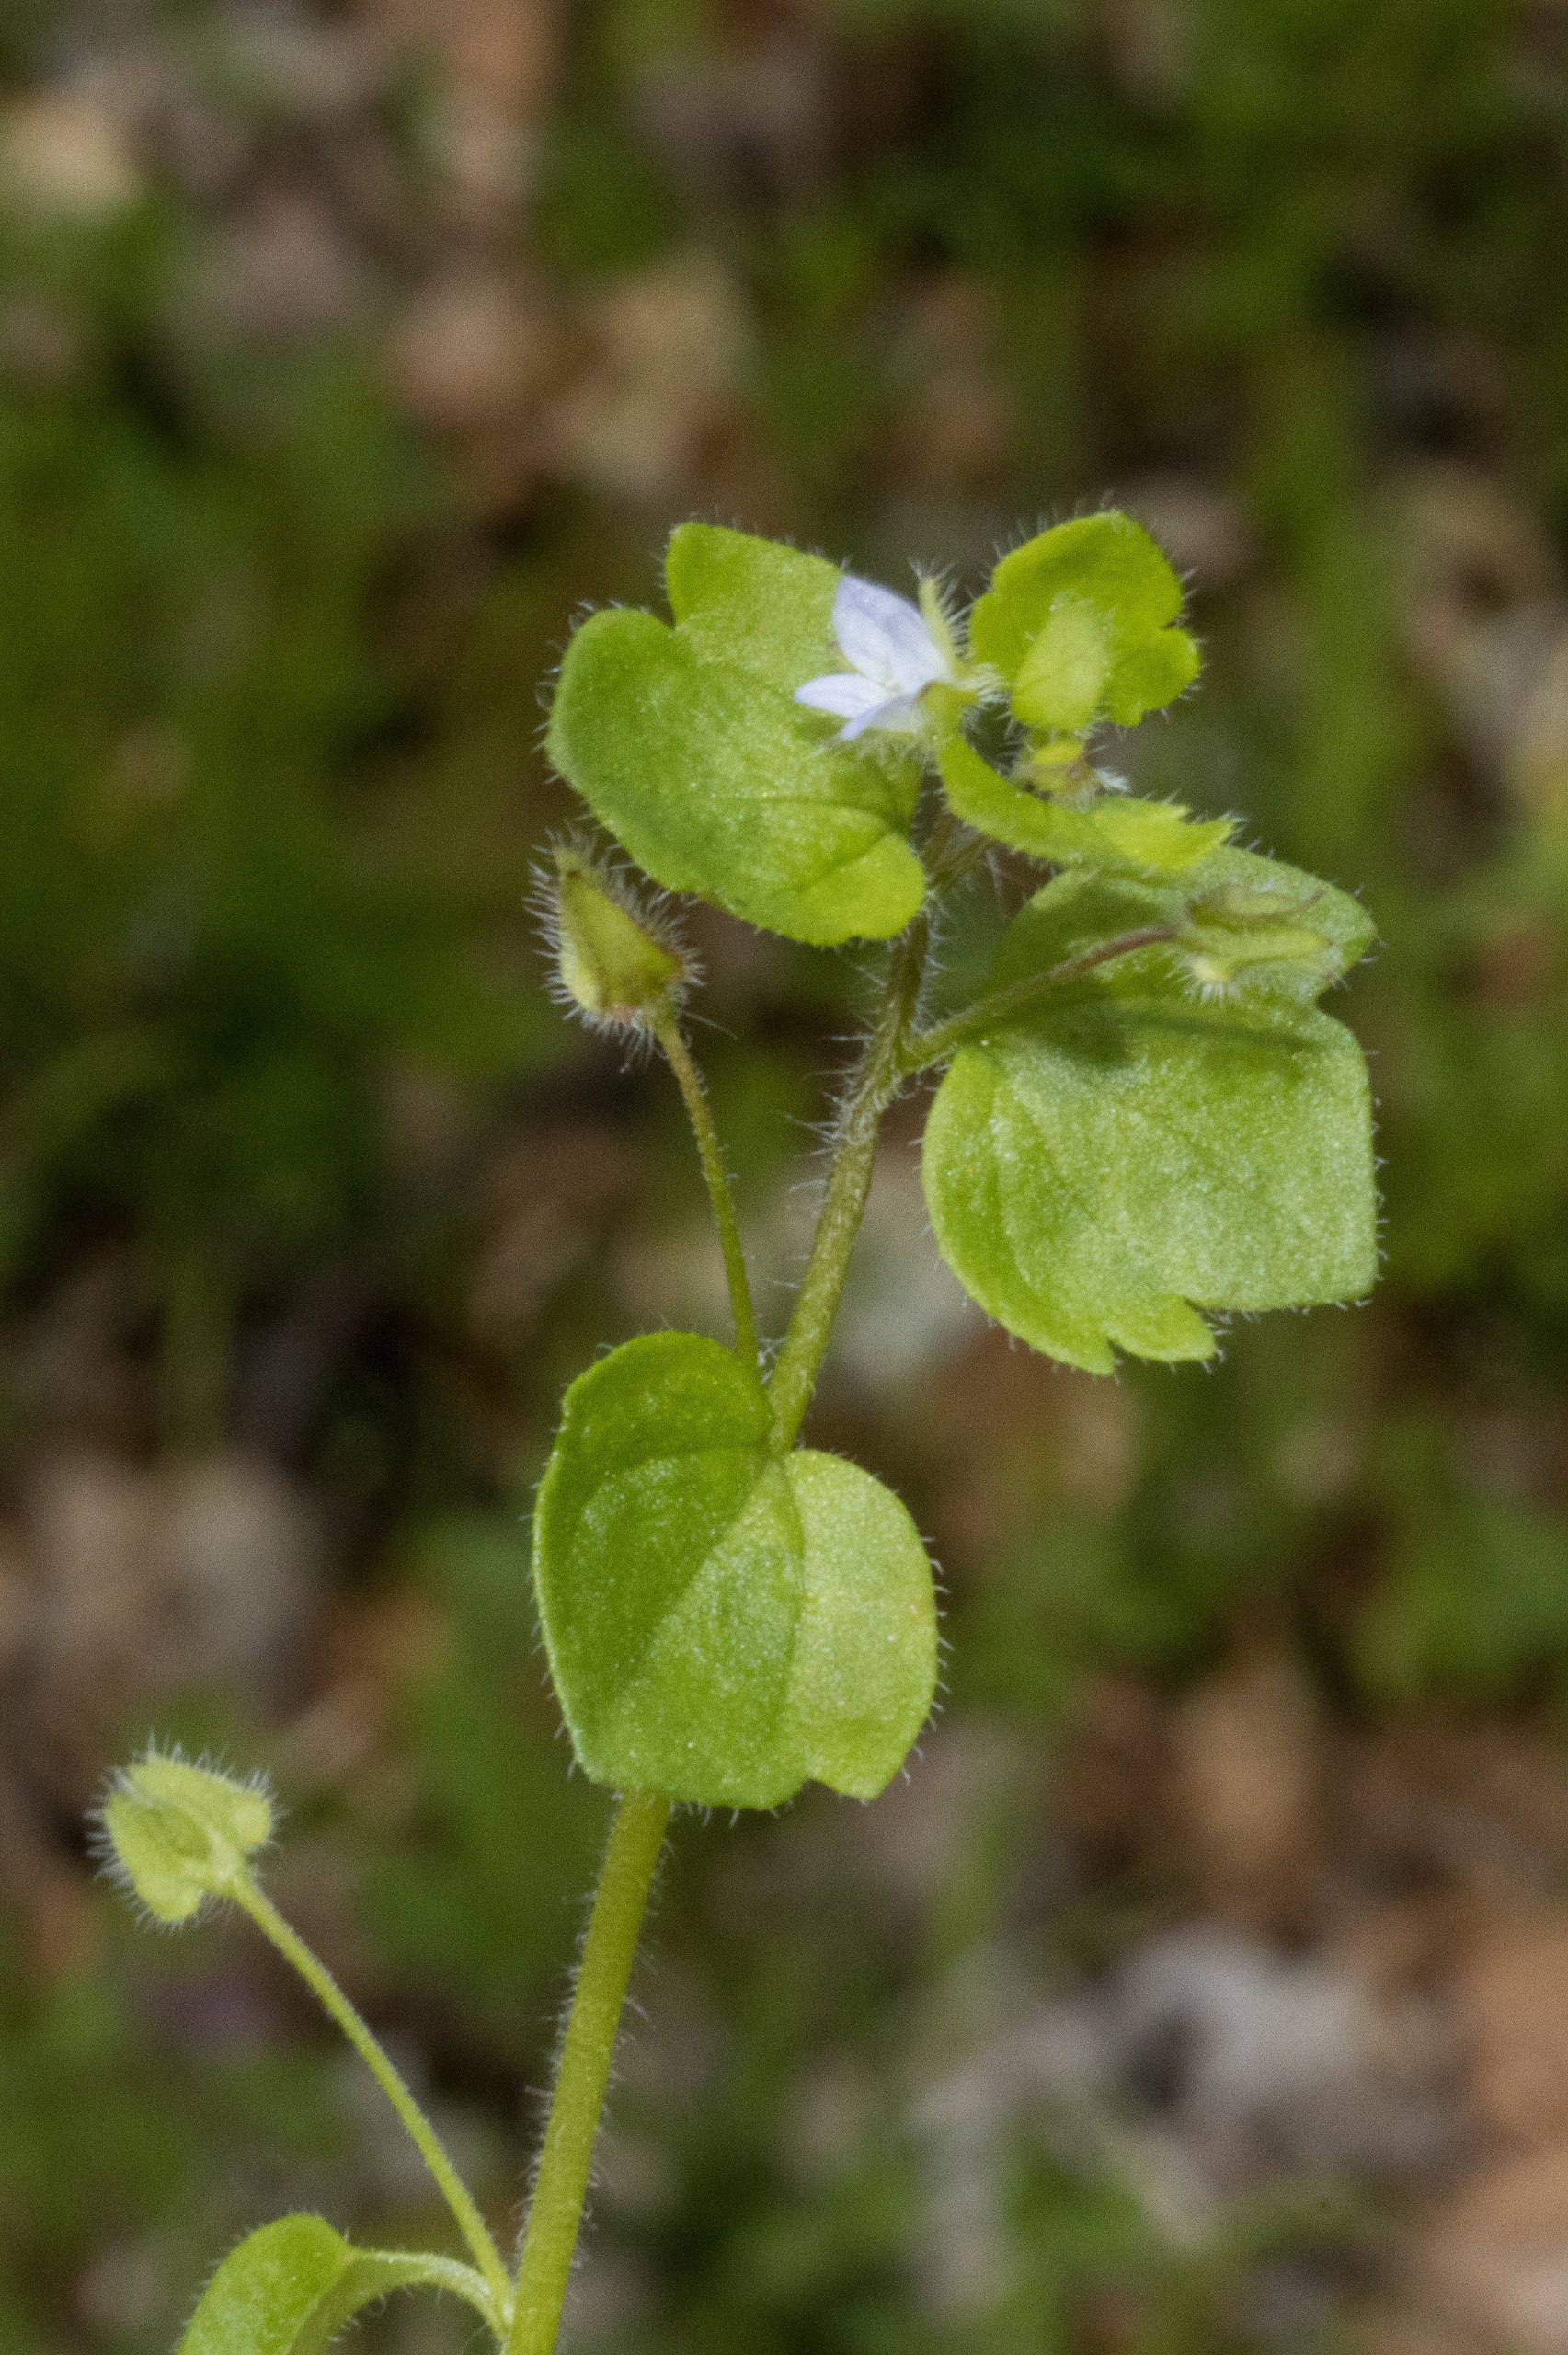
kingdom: Plantae
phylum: Tracheophyta
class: Magnoliopsida
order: Lamiales
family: Plantaginaceae
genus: Veronica
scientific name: Veronica sublobata
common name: Krat-ærenpris
